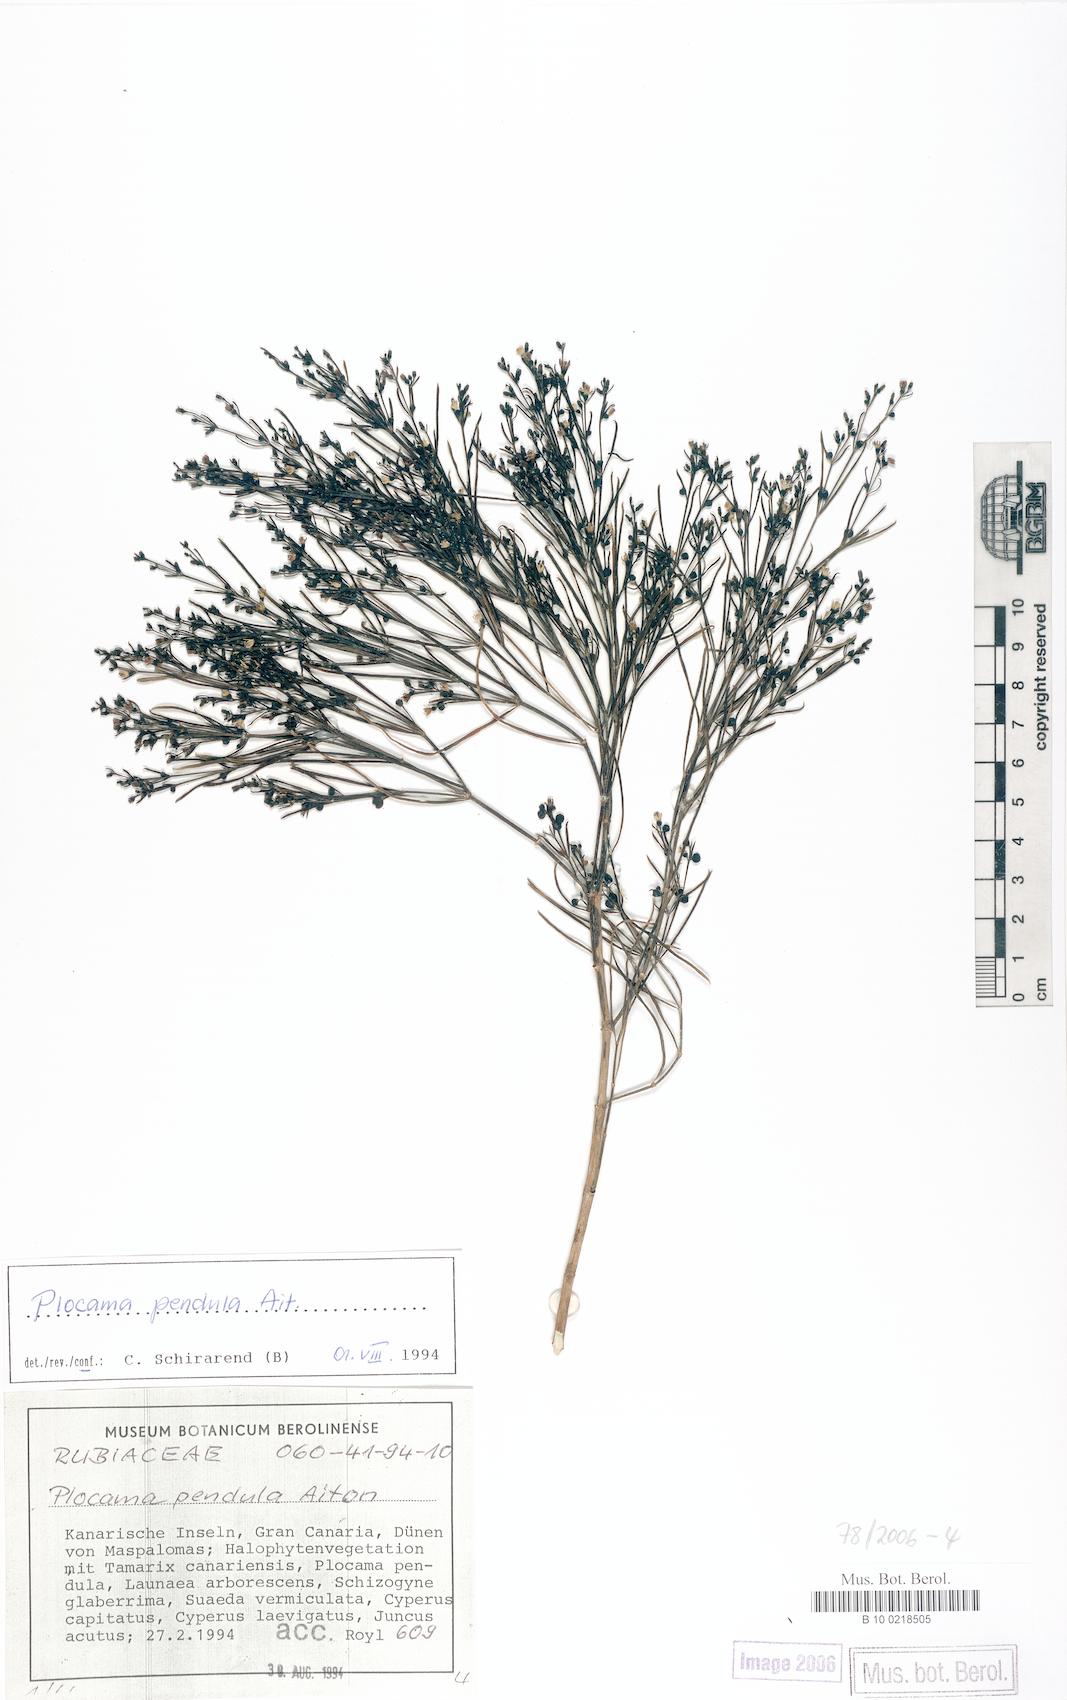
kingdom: Plantae
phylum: Tracheophyta
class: Magnoliopsida
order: Gentianales
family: Rubiaceae
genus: Plocama
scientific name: Plocama pendula
